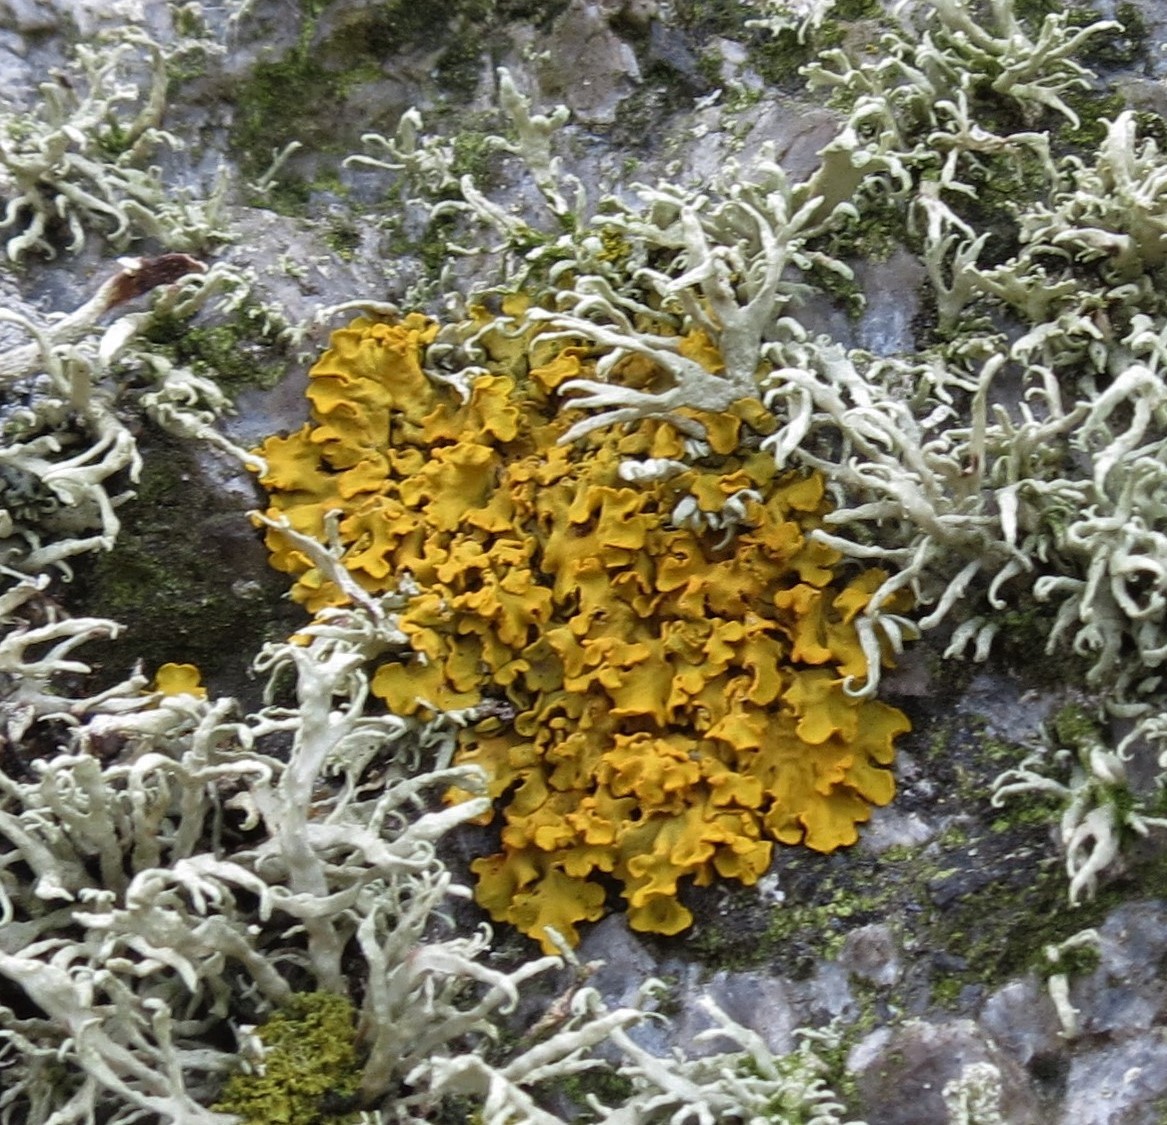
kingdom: Fungi
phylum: Ascomycota
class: Lecanoromycetes
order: Teloschistales
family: Teloschistaceae
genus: Xanthoria
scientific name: Xanthoria aureola
